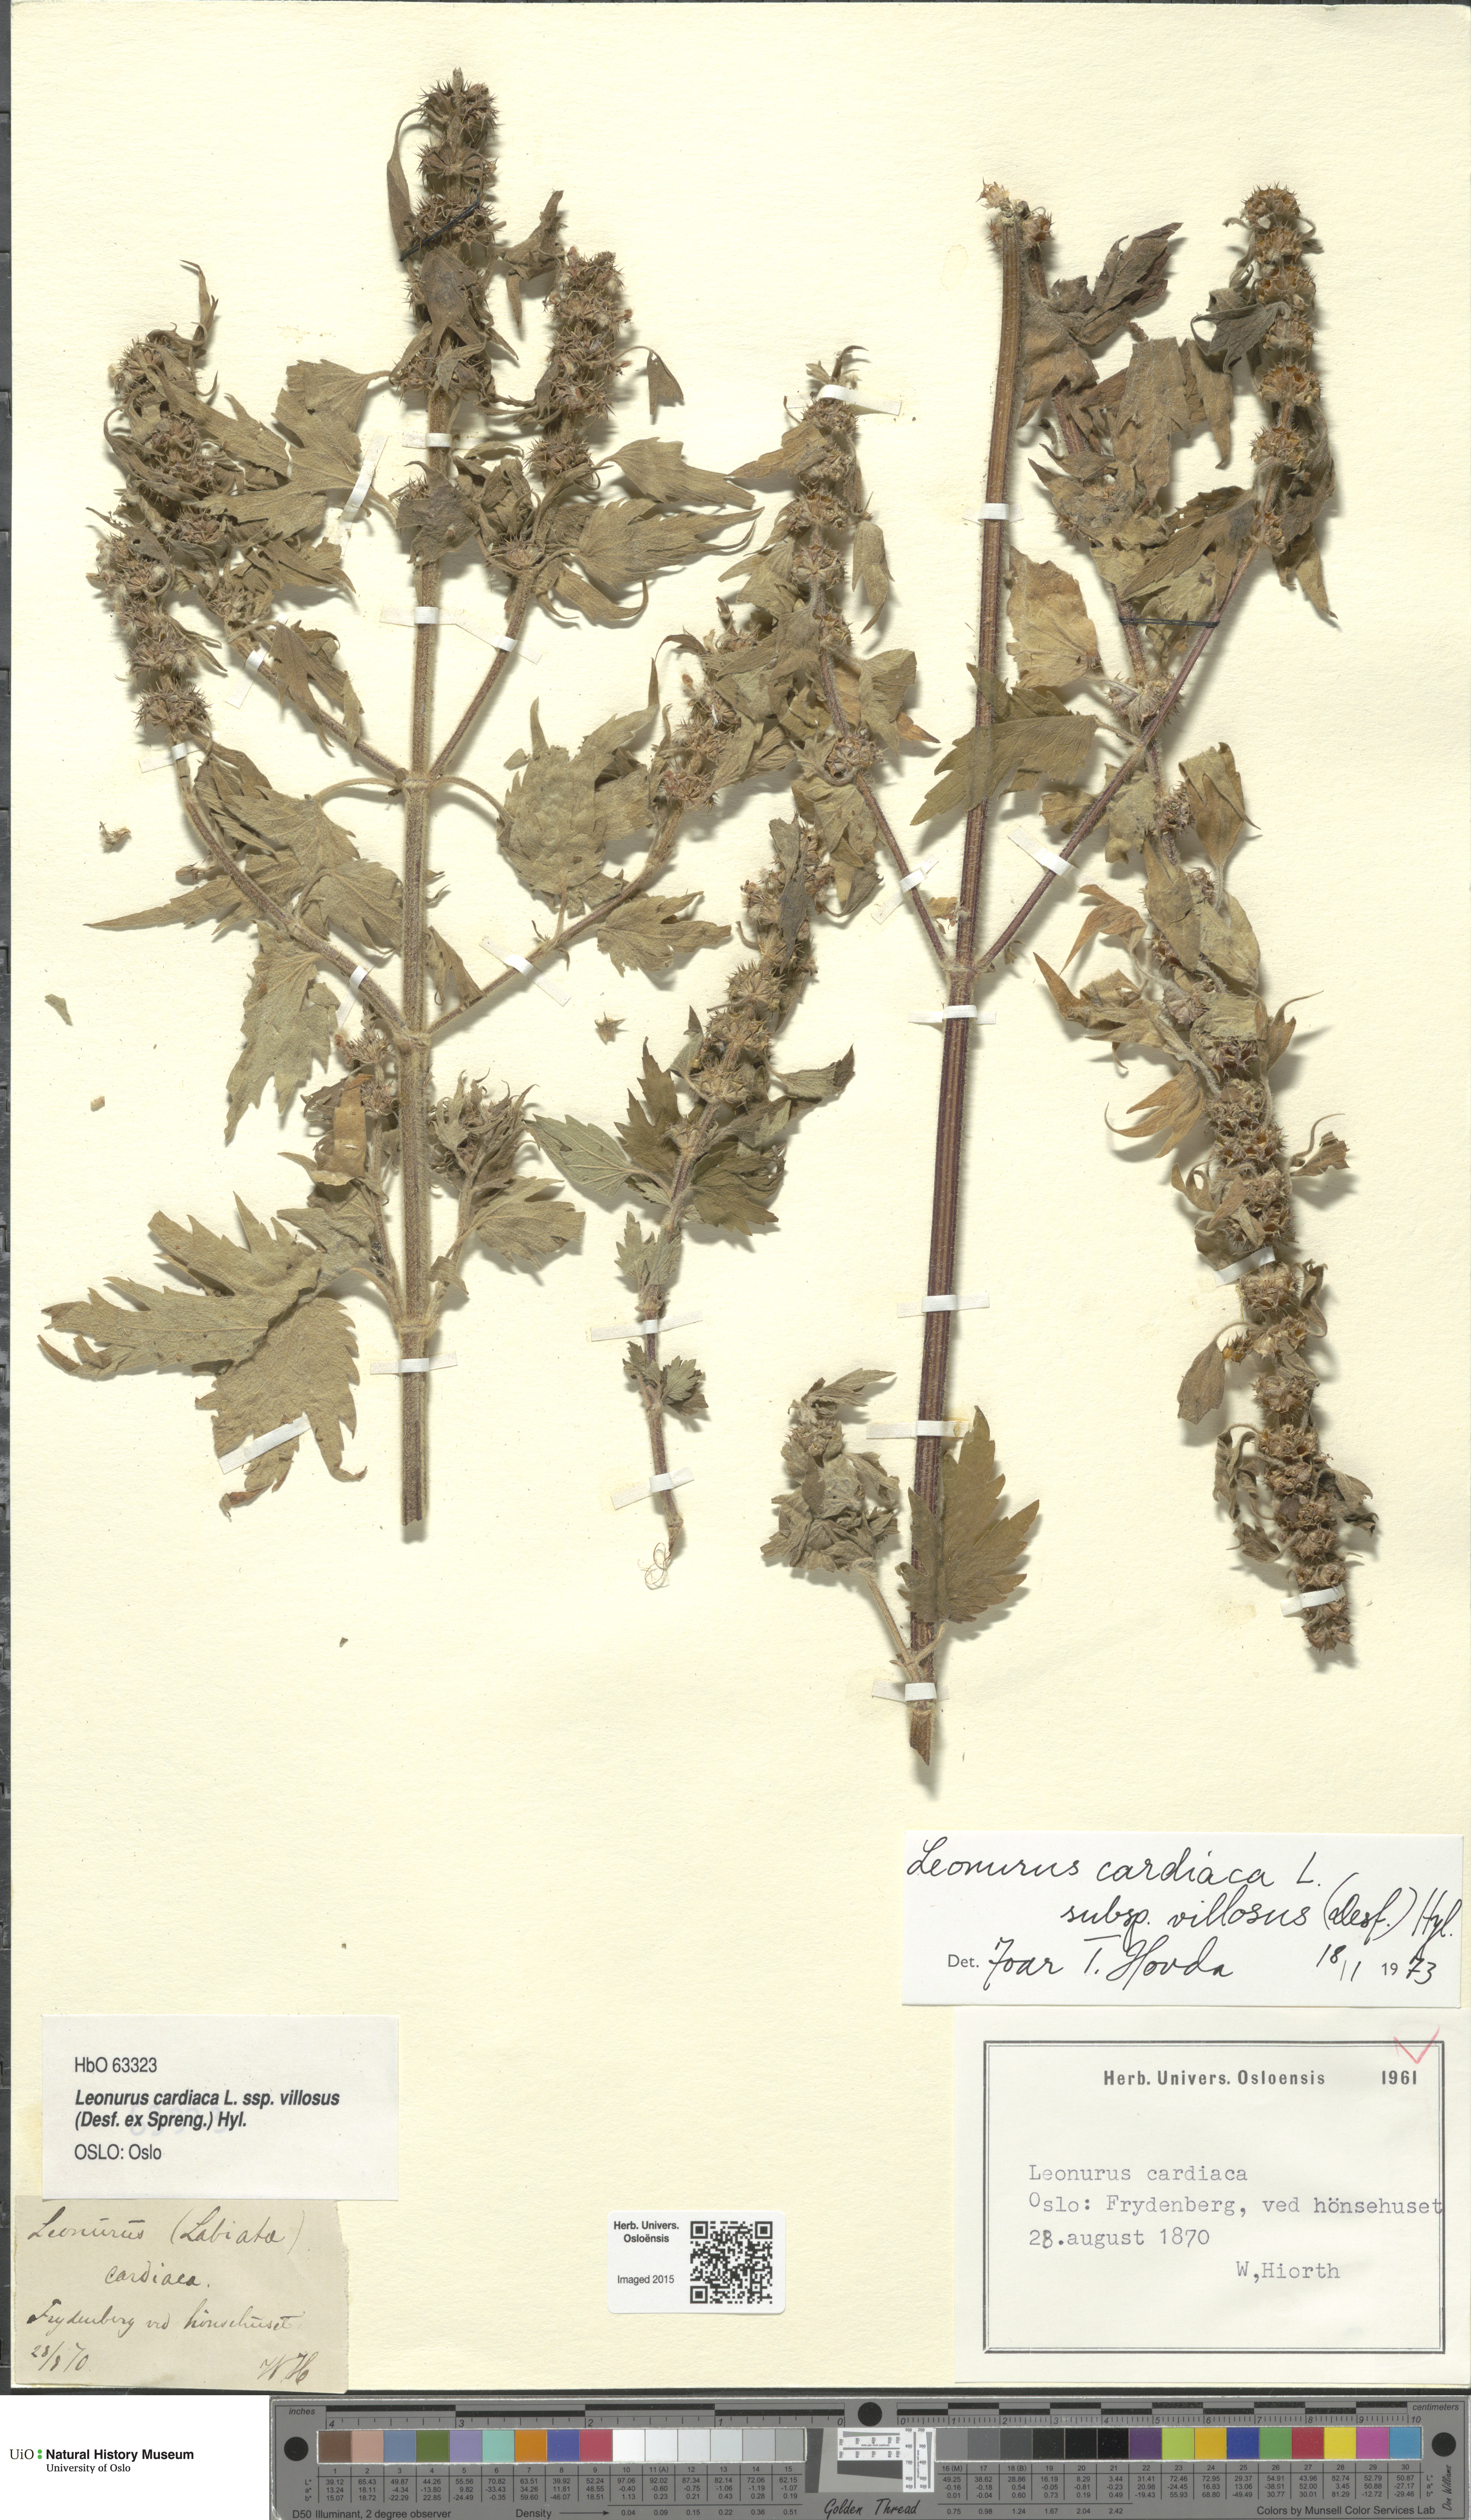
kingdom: Plantae
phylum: Tracheophyta
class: Magnoliopsida
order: Lamiales
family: Lamiaceae
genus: Leonurus
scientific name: Leonurus quinquelobatus
